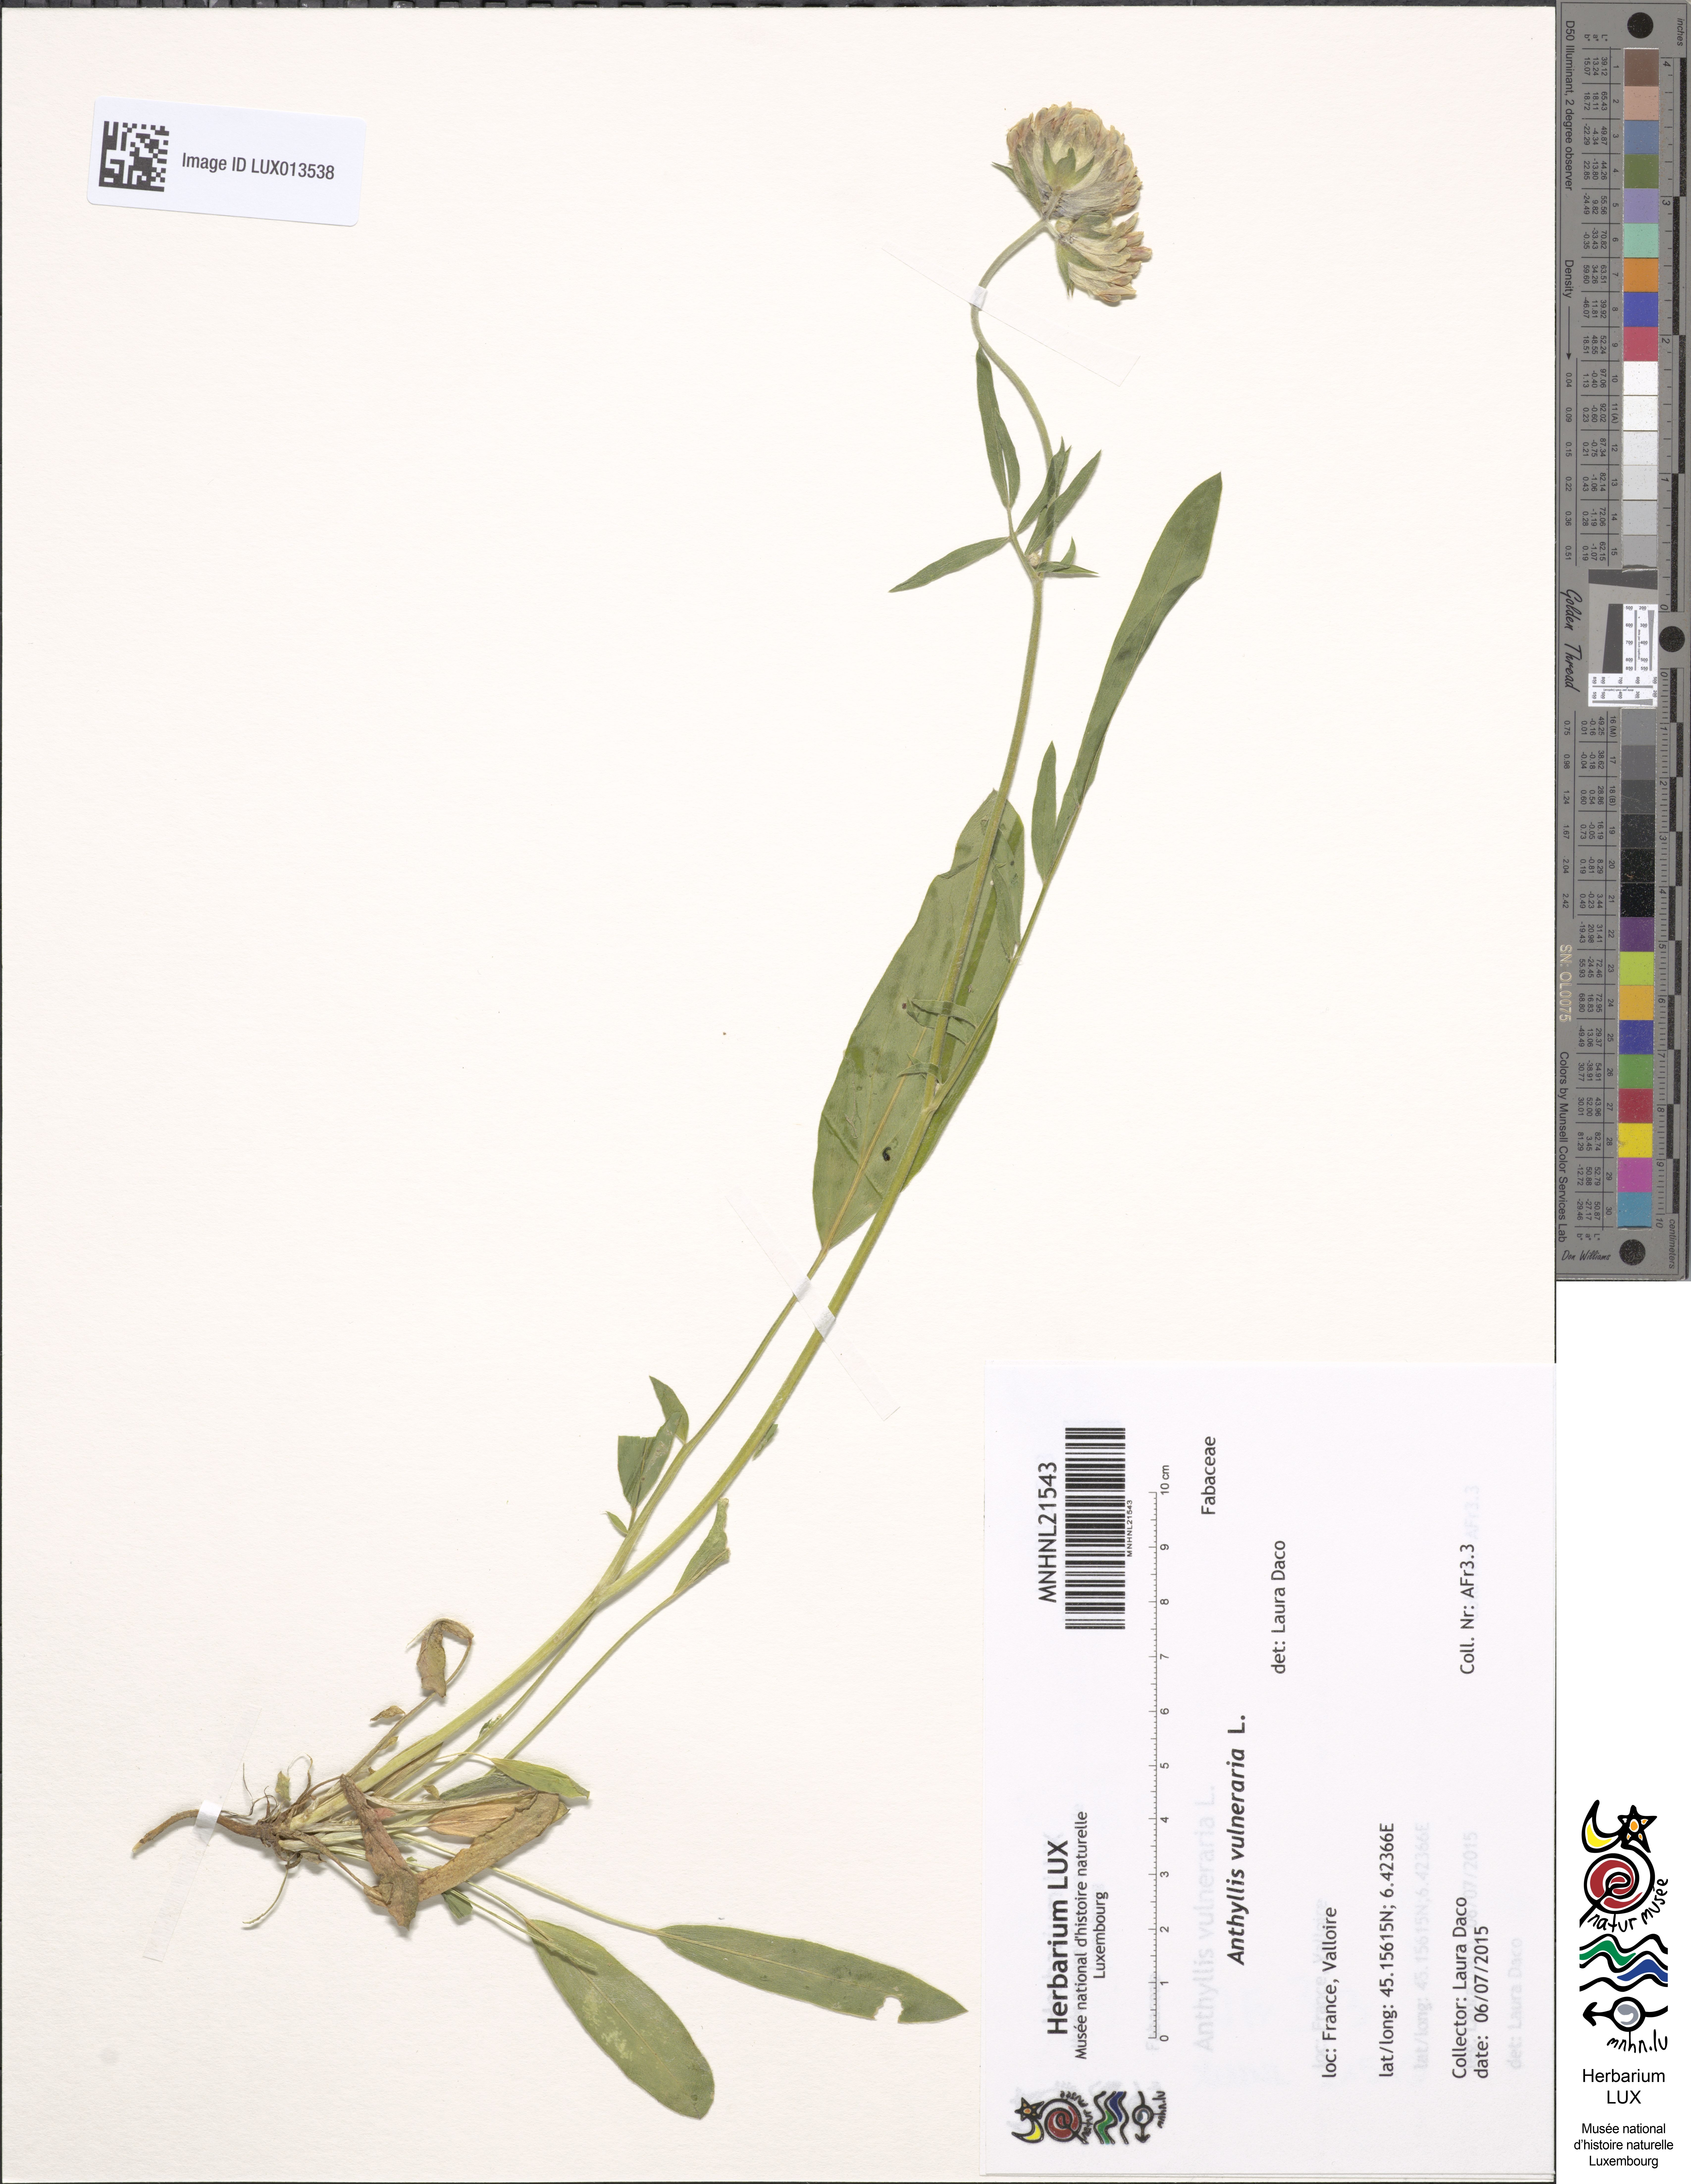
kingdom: Plantae
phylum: Tracheophyta
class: Magnoliopsida
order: Fabales
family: Fabaceae
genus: Anthyllis
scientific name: Anthyllis vulneraria
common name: Kidney vetch
